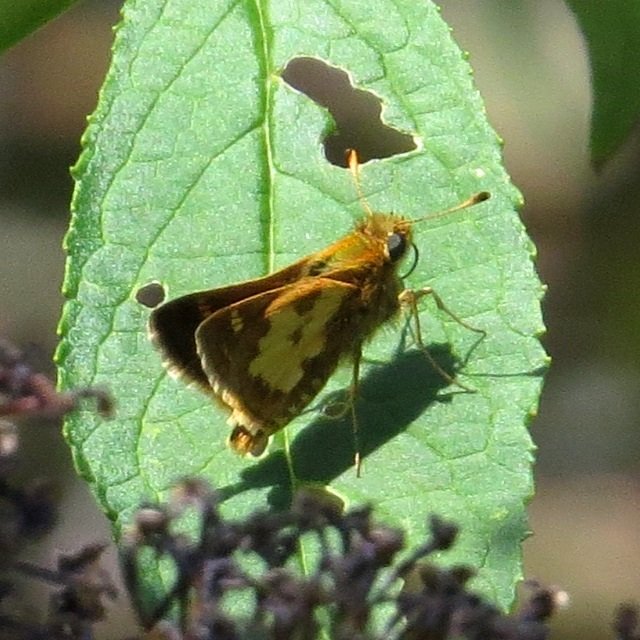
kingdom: Animalia
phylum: Arthropoda
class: Insecta
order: Lepidoptera
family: Hesperiidae
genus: Polites
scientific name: Polites coras
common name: Peck's Skipper
